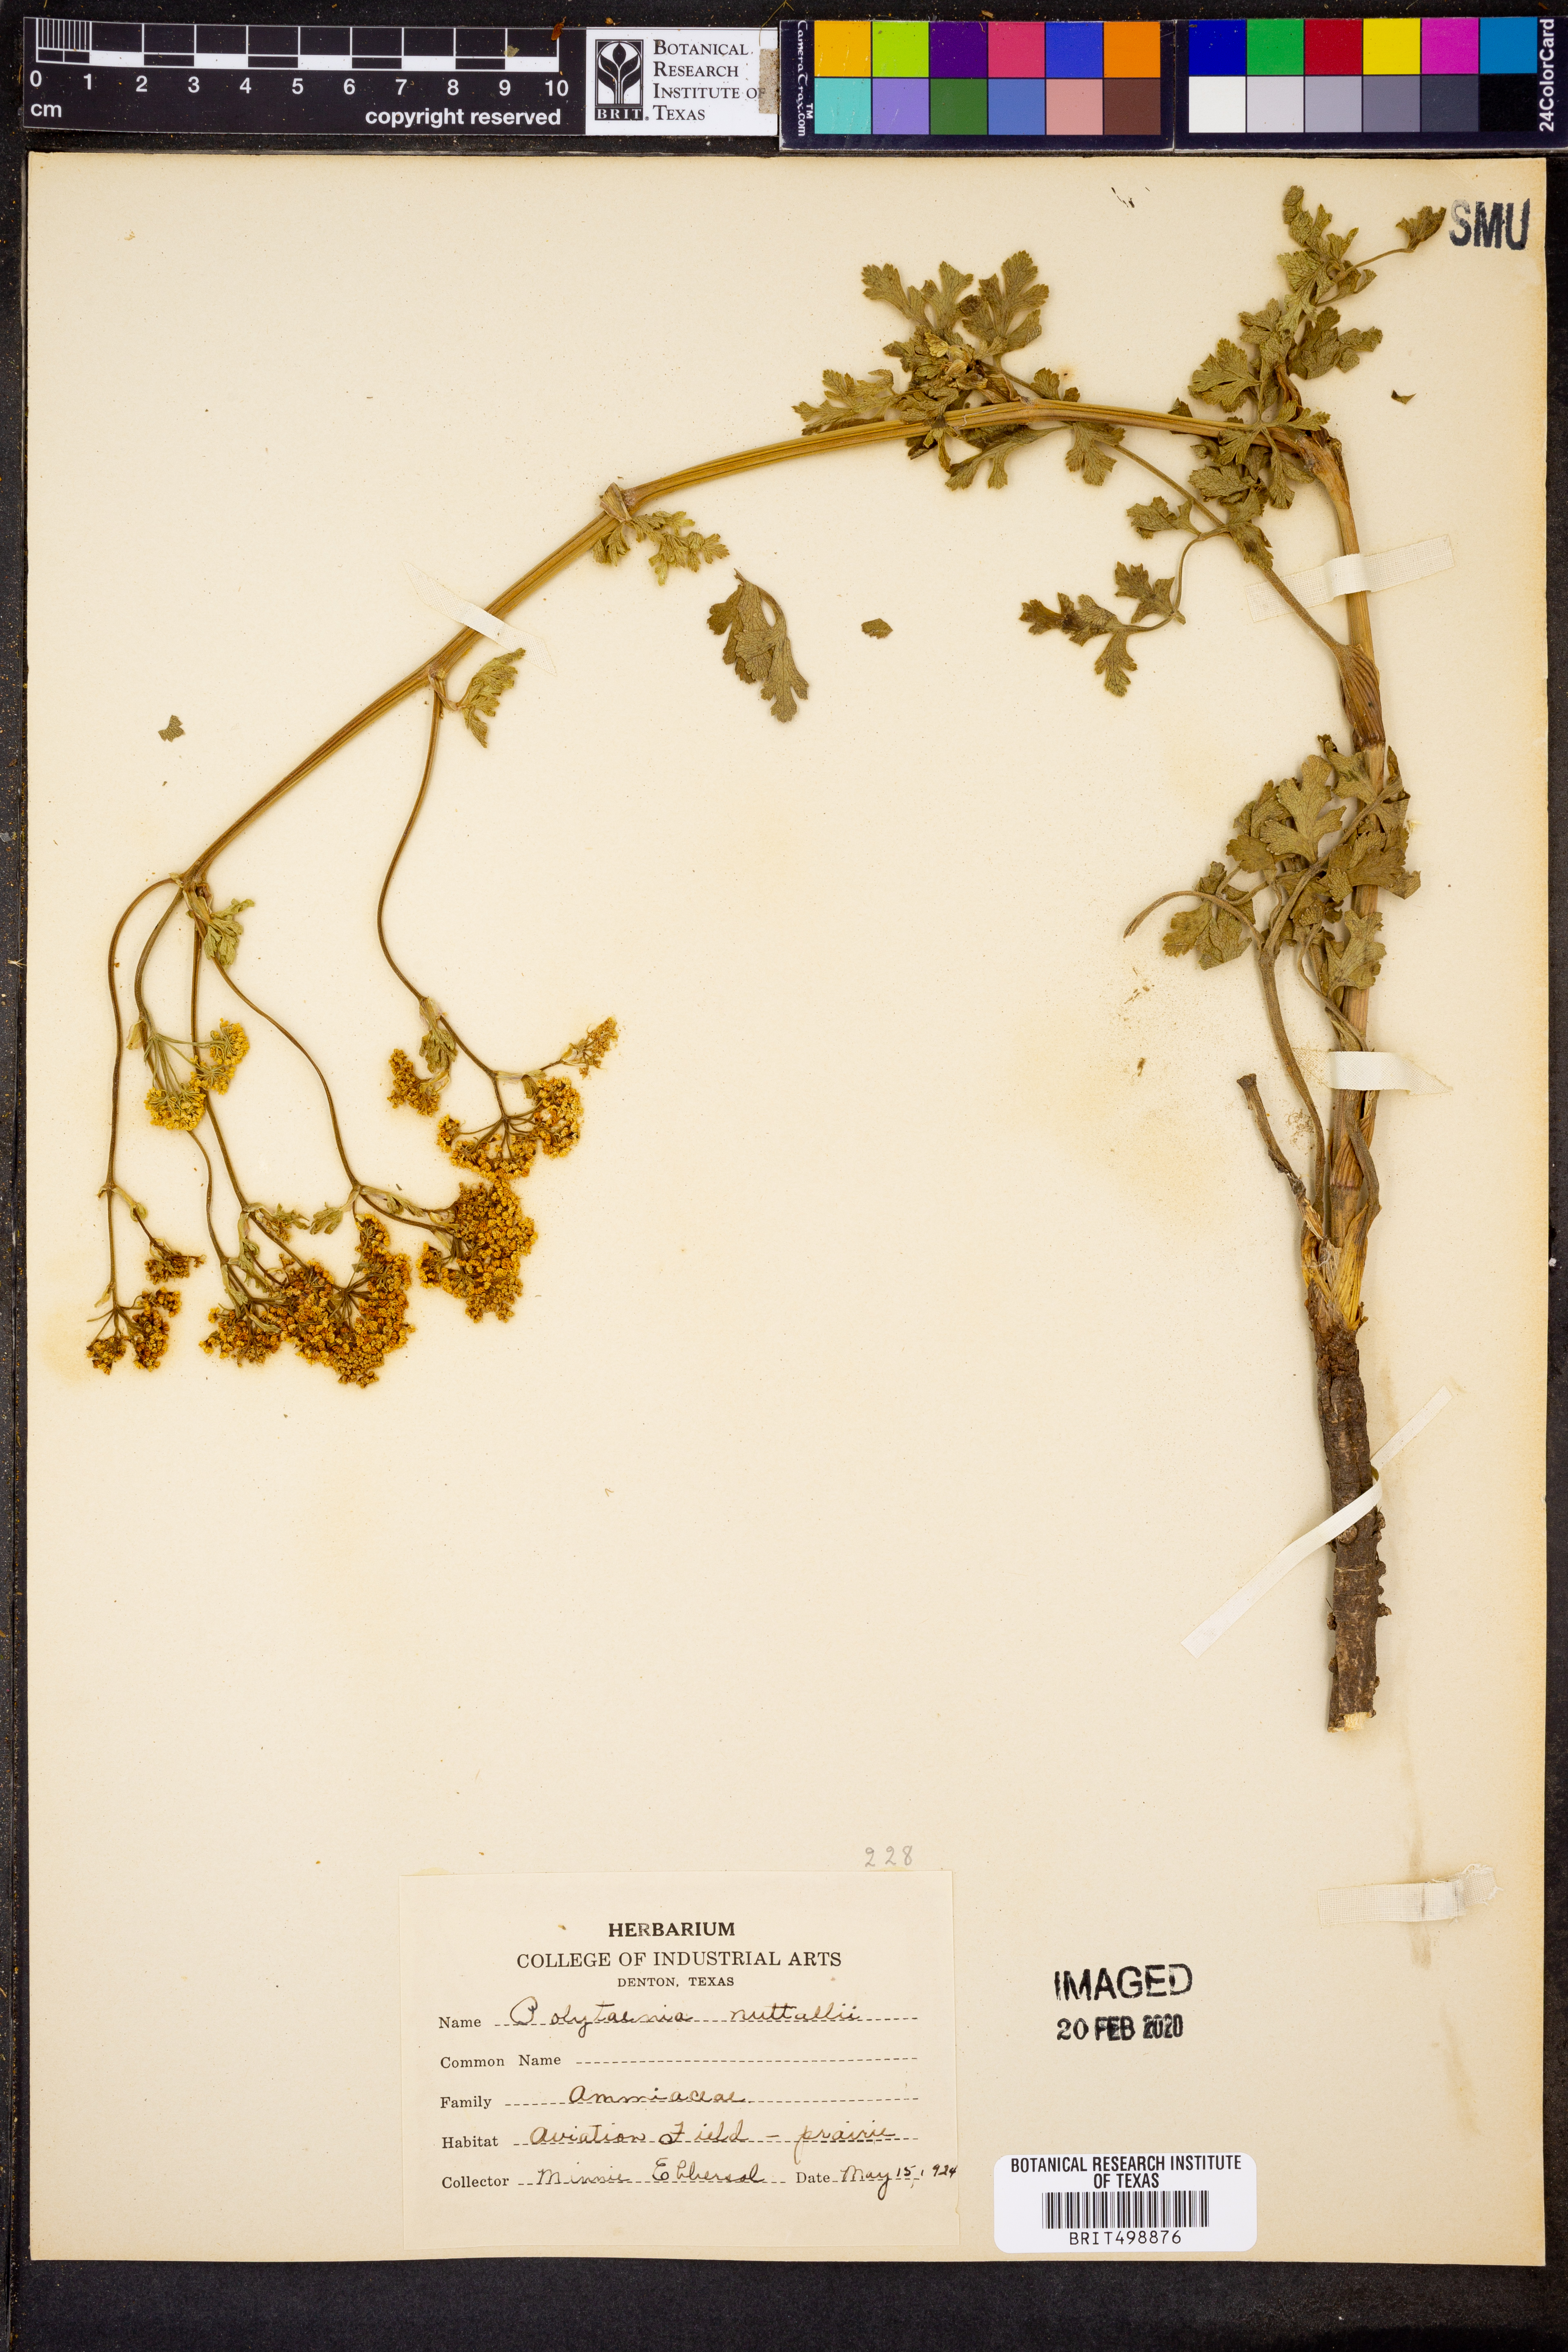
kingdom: Plantae
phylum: Tracheophyta
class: Magnoliopsida
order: Apiales
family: Apiaceae
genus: Polytaenia
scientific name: Polytaenia nuttallii
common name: Prairie-parsley
